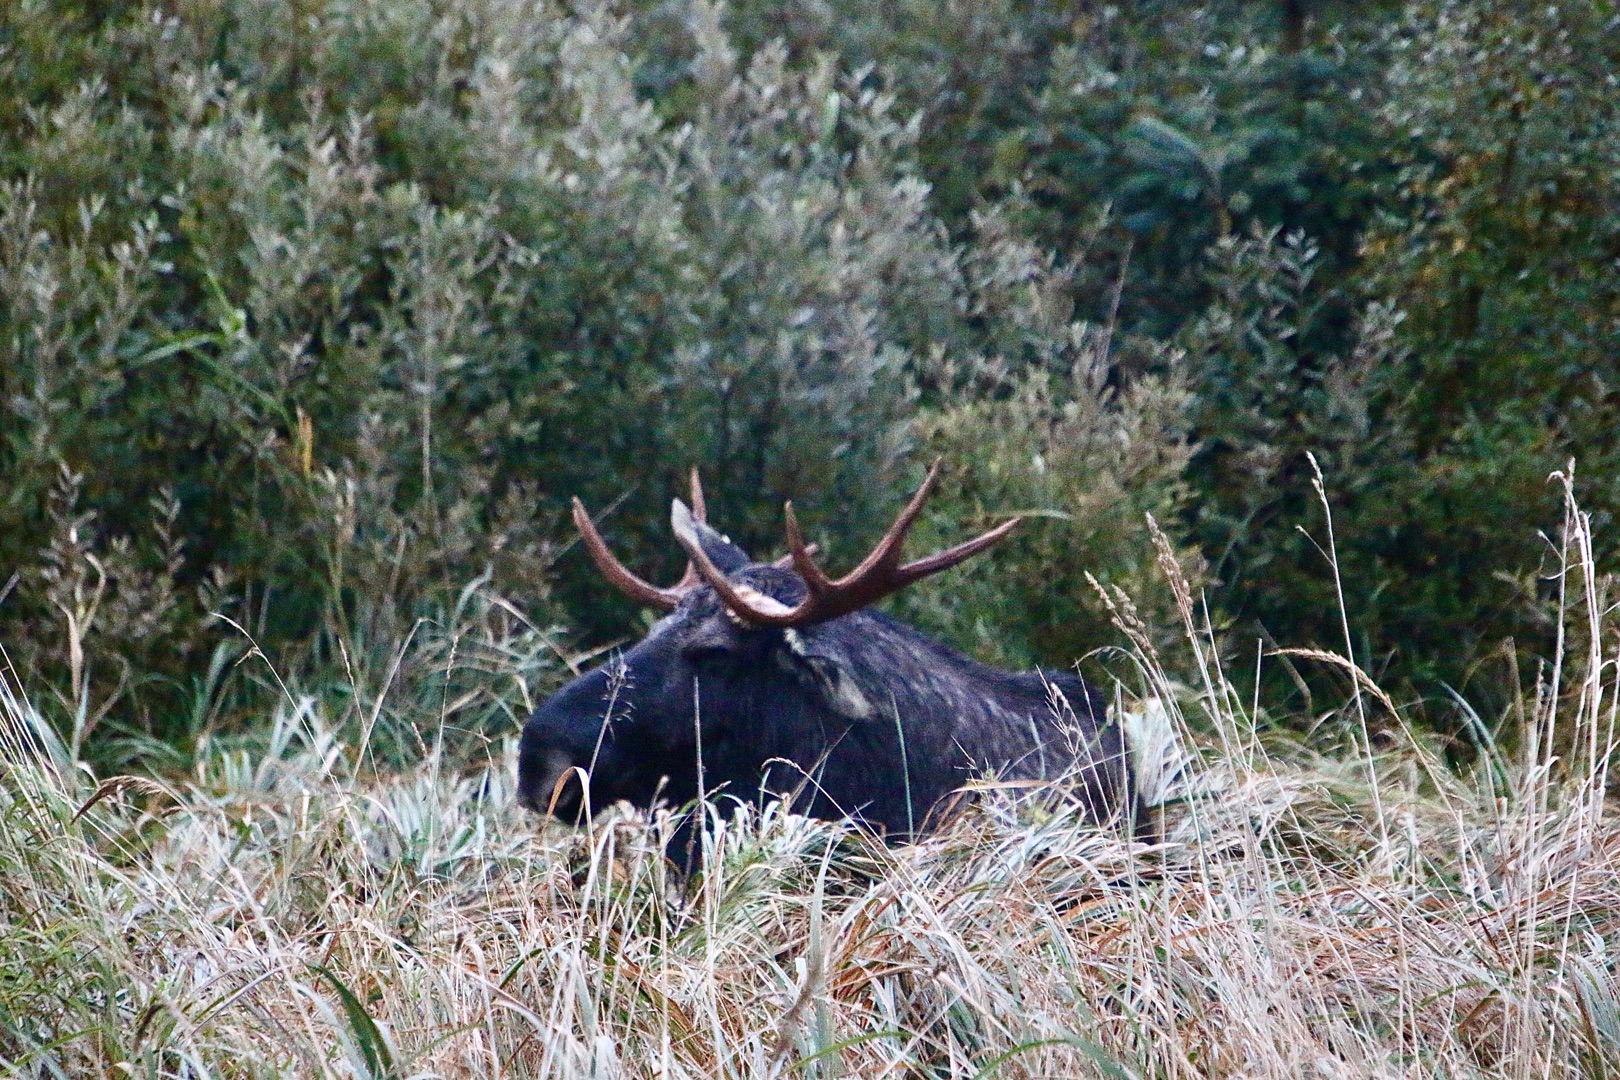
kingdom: Animalia
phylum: Chordata
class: Mammalia
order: Artiodactyla
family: Cervidae
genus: Alces
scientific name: Alces alces
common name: Elg
